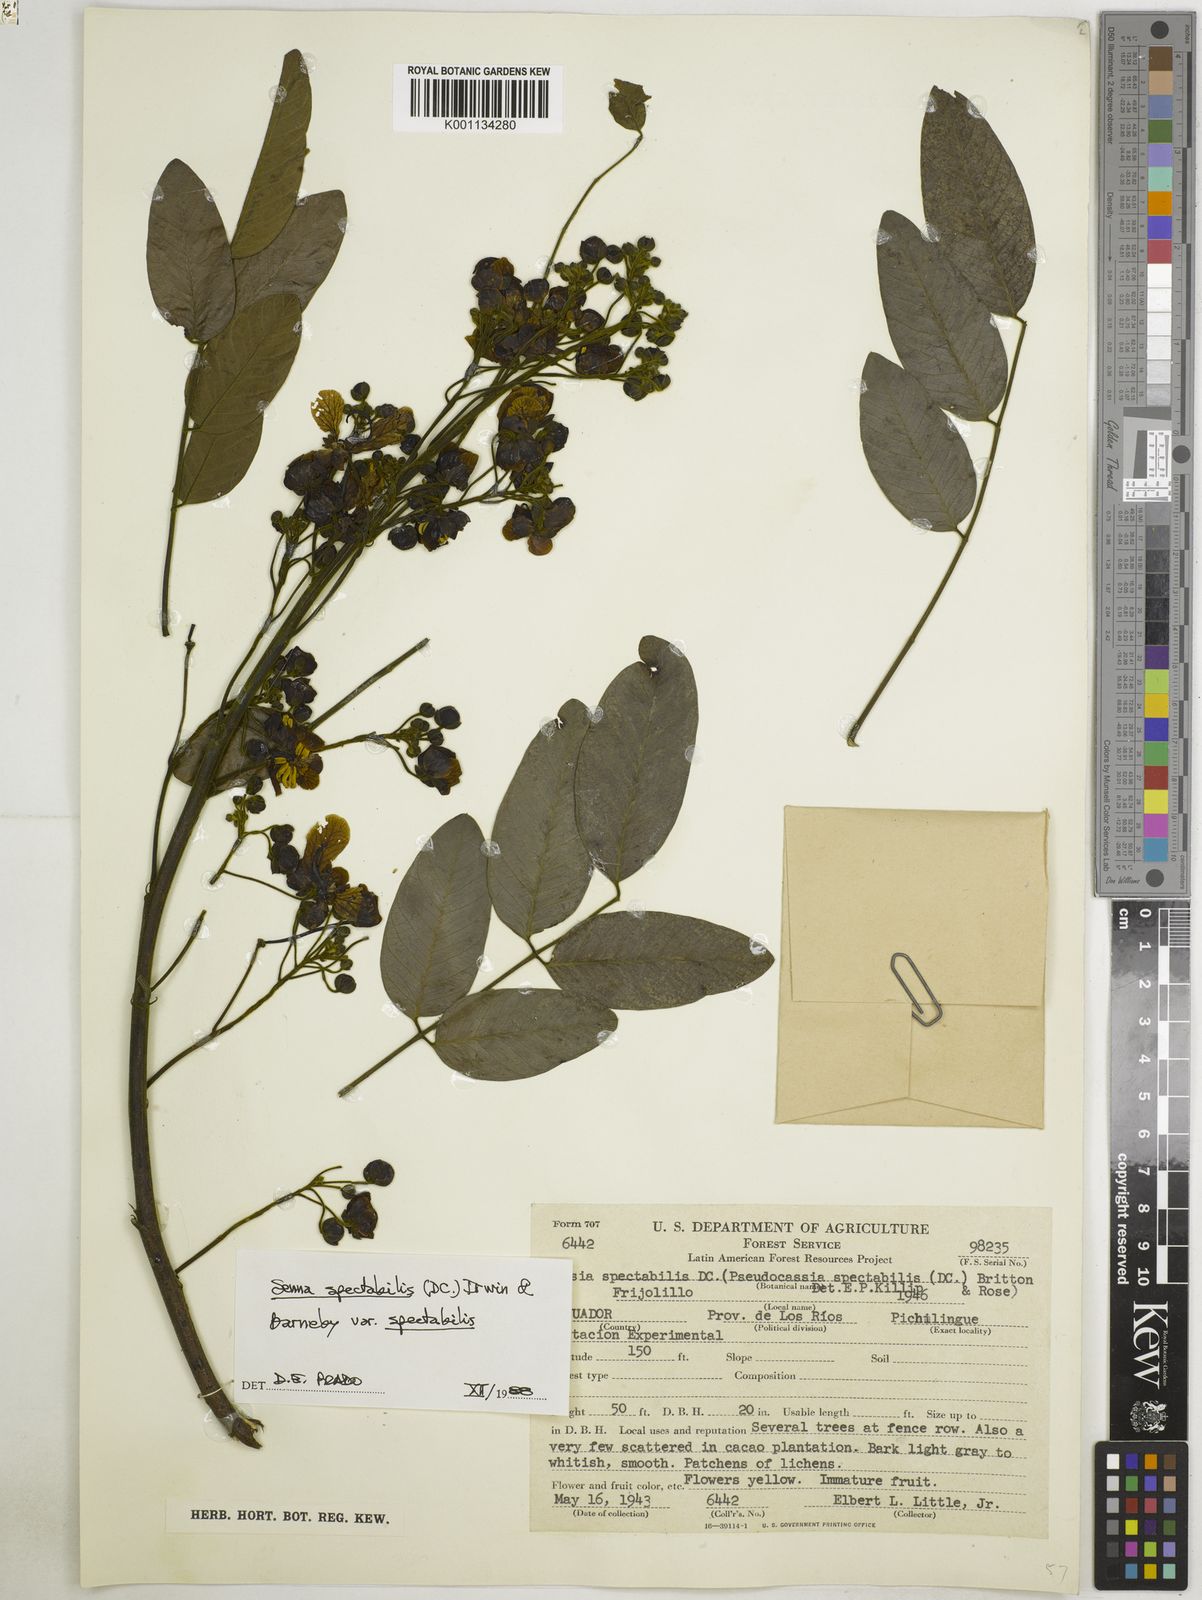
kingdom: Plantae
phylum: Tracheophyta
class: Magnoliopsida
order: Fabales
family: Fabaceae
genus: Senna
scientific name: Senna spectabilis
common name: Casia amarilla
